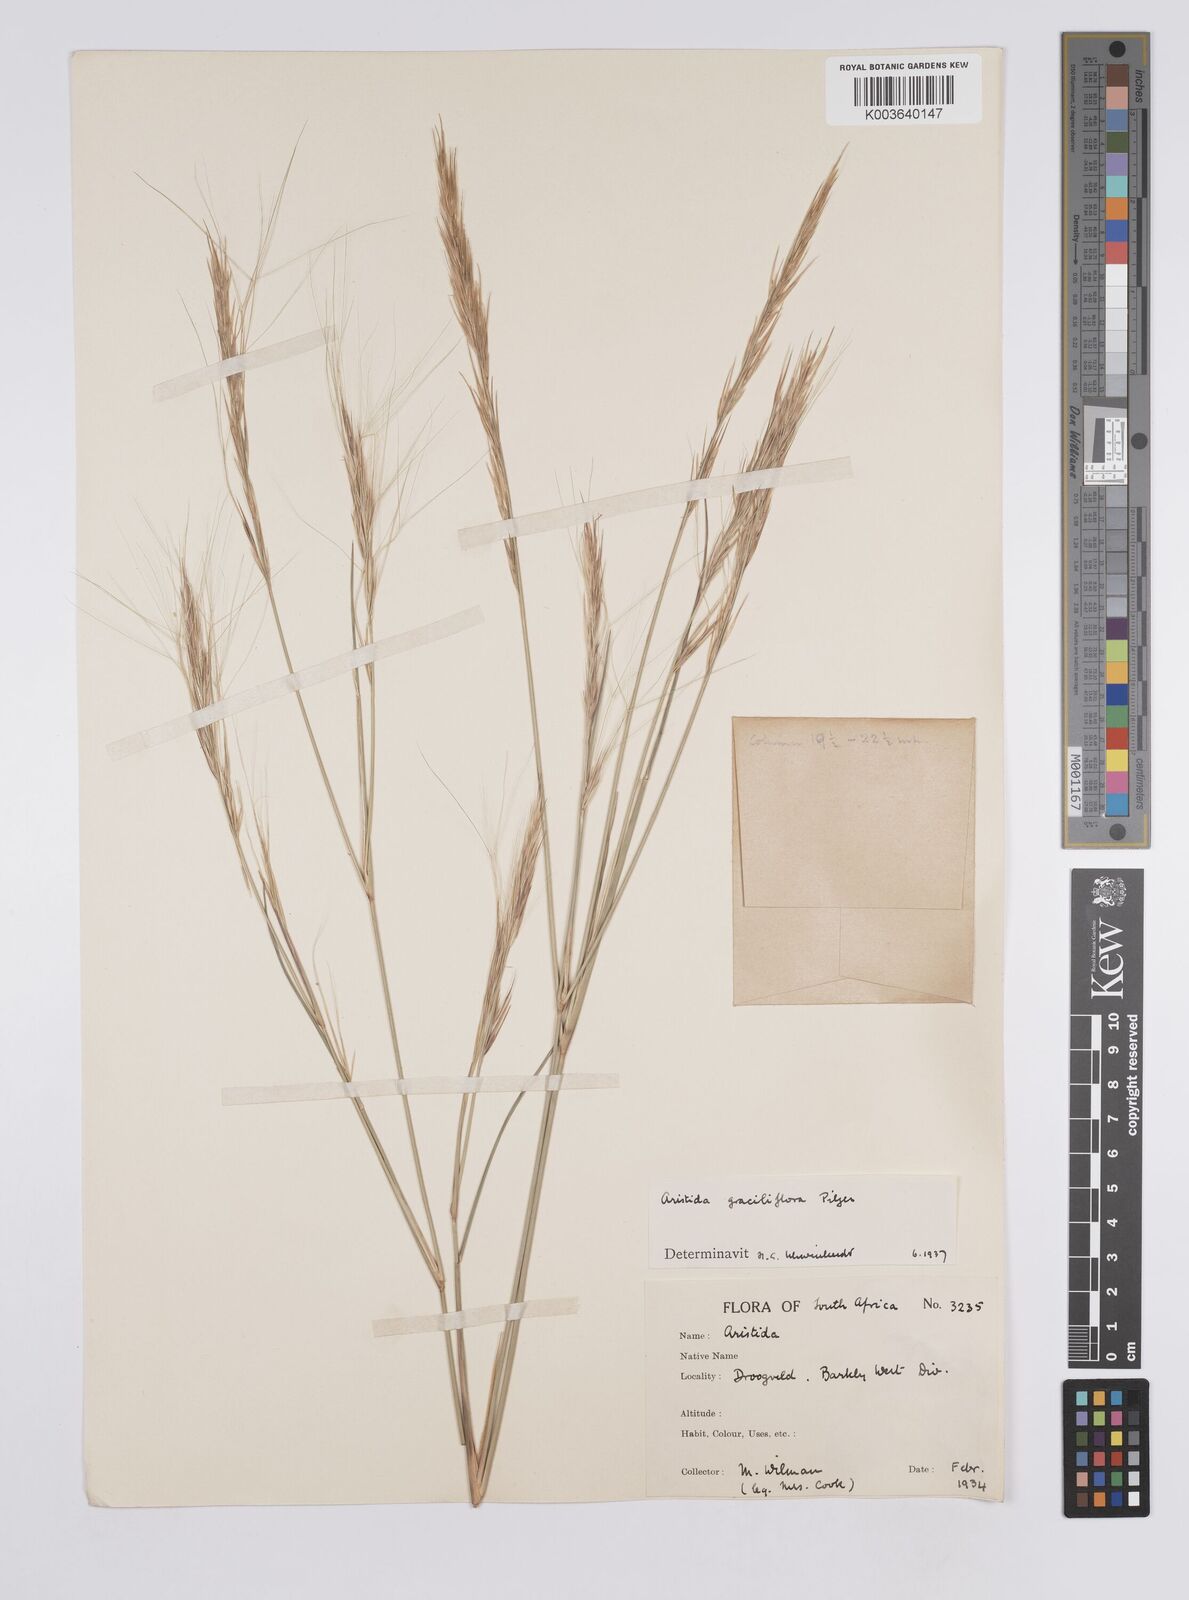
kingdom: Plantae
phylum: Tracheophyta
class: Liliopsida
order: Poales
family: Poaceae
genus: Aristida
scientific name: Aristida stipitata
